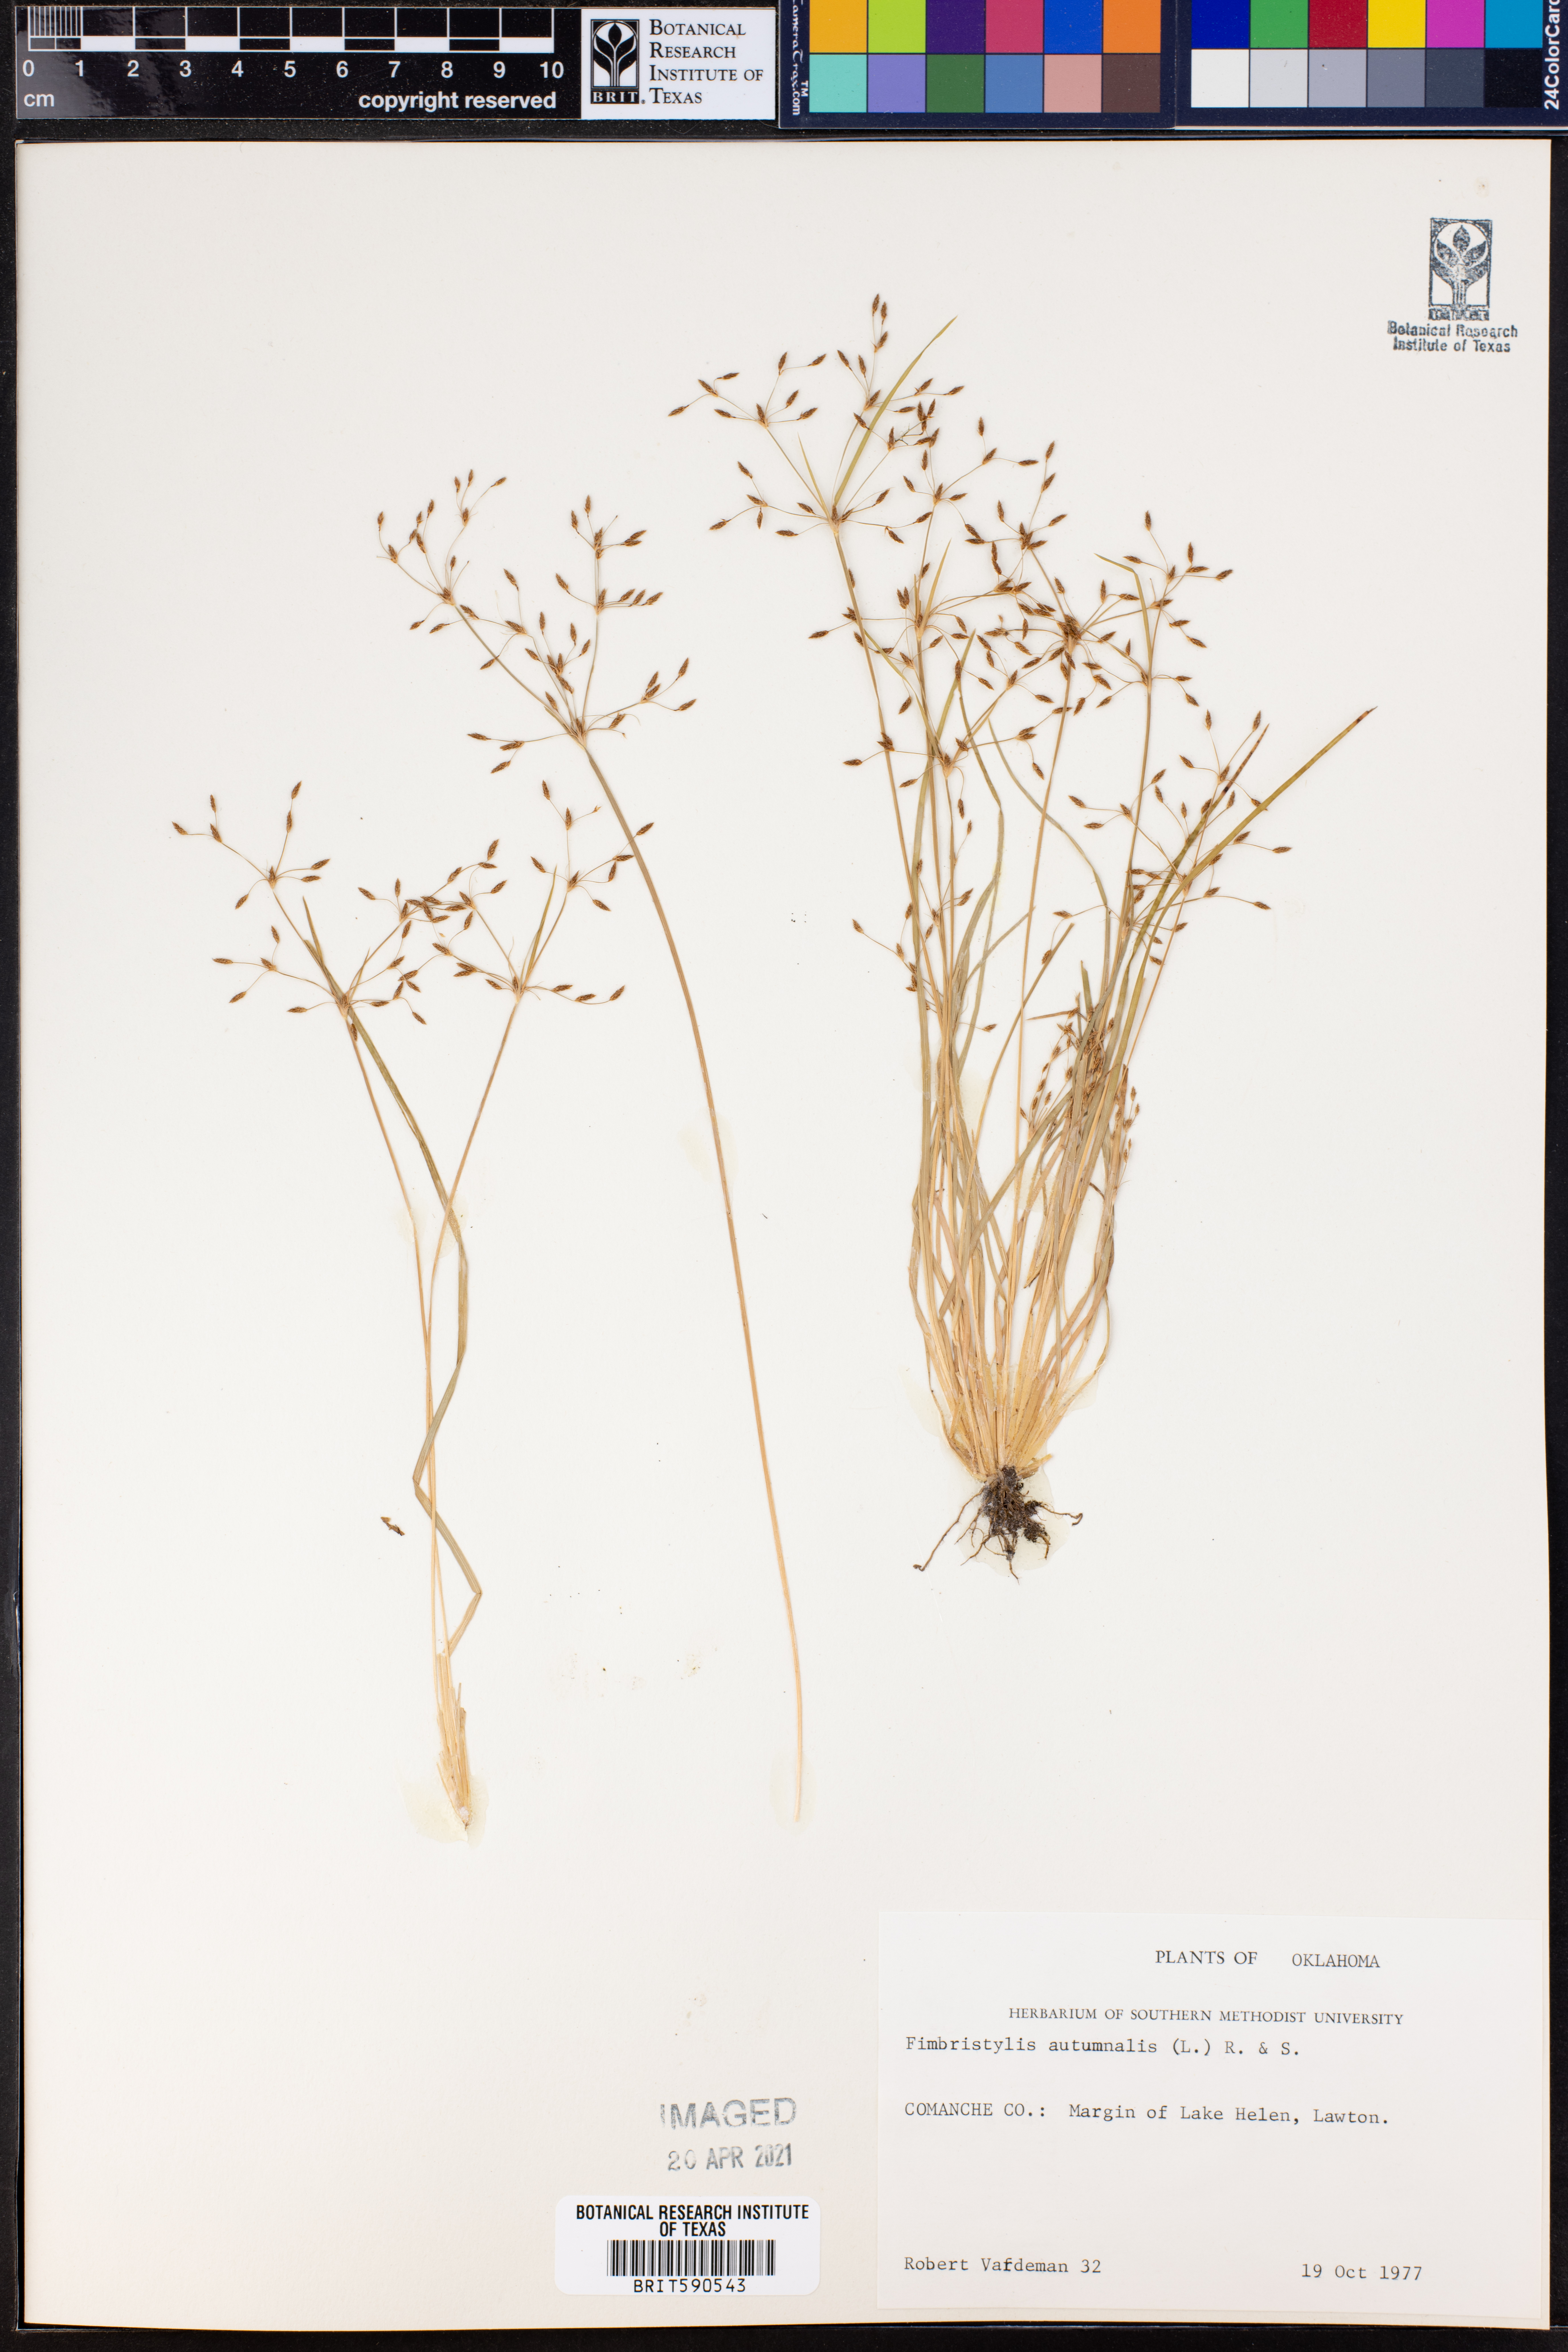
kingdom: Plantae
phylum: Tracheophyta
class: Liliopsida
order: Poales
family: Cyperaceae
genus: Fimbristylis
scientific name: Fimbristylis autumnalis
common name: Slender fimbristylis
